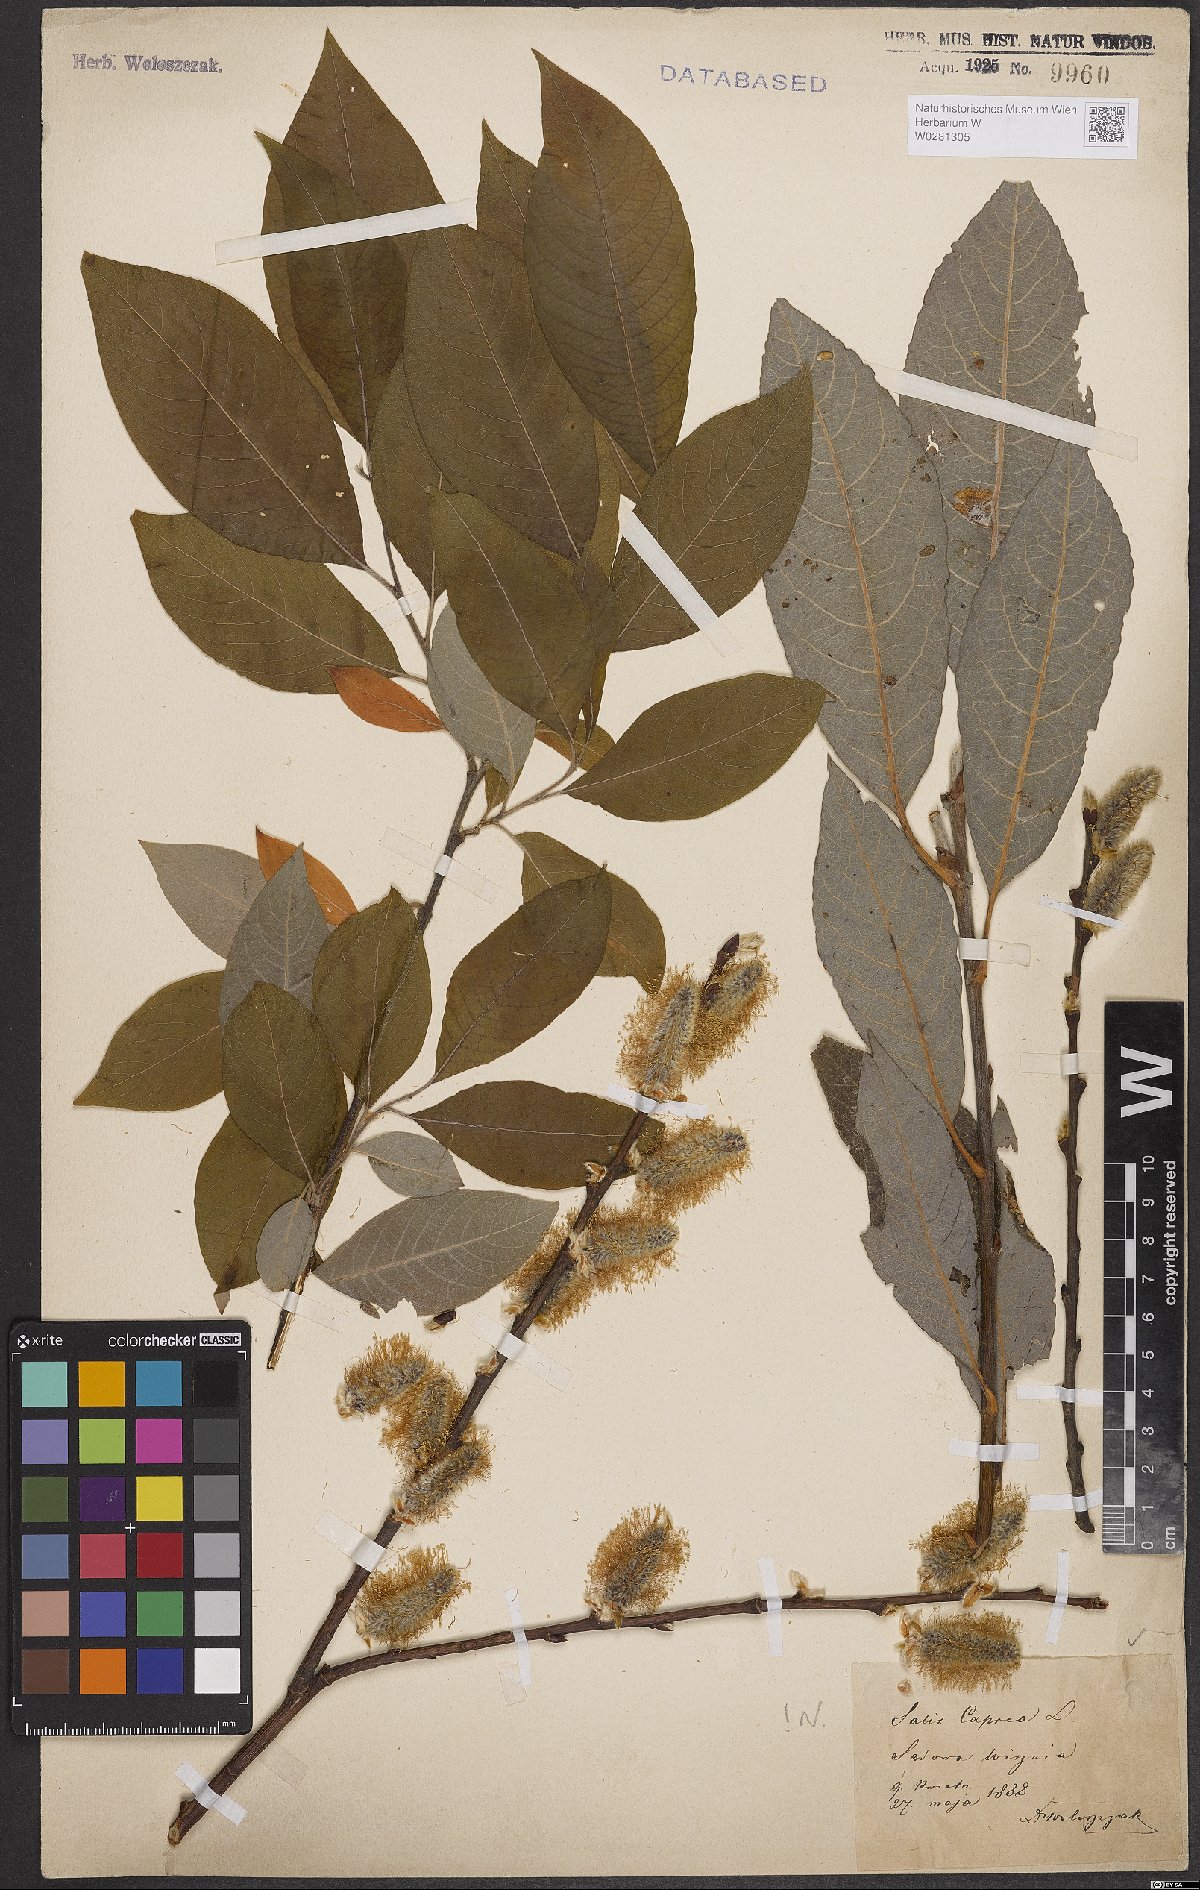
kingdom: Plantae
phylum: Tracheophyta
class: Magnoliopsida
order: Malpighiales
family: Salicaceae
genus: Salix
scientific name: Salix caprea
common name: Goat willow
